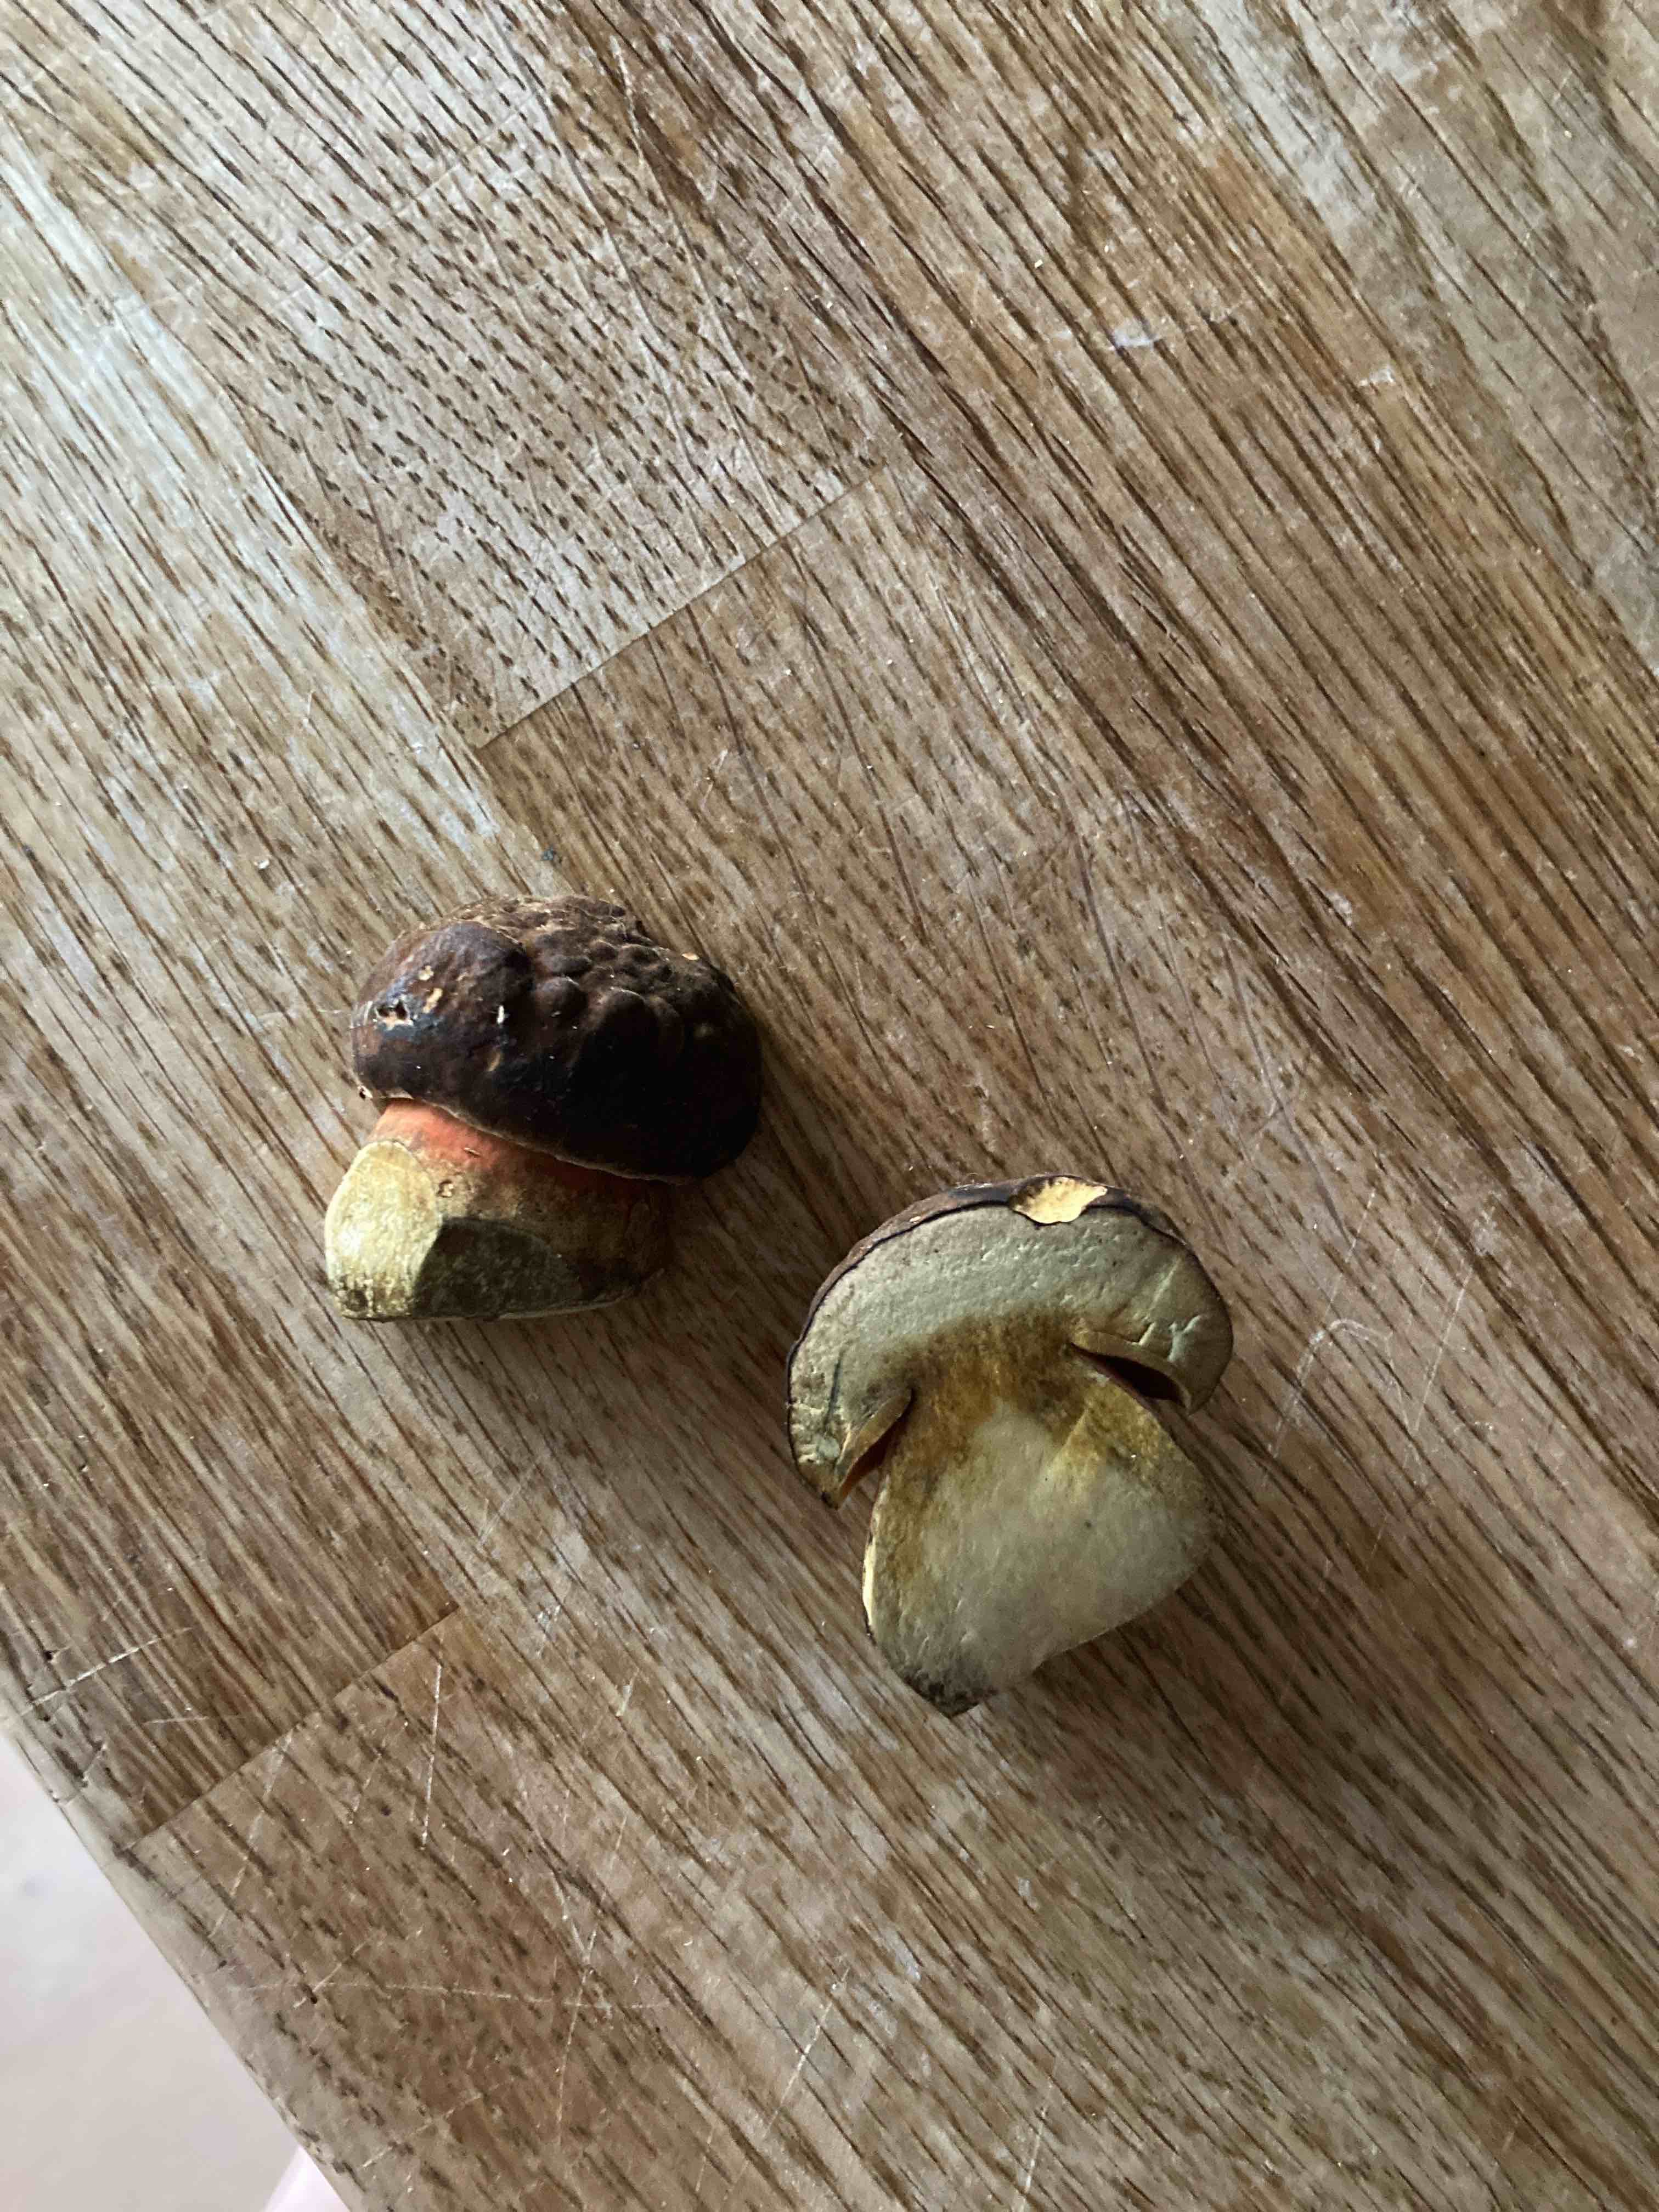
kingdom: Fungi
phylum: Basidiomycota
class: Agaricomycetes
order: Boletales
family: Boletaceae
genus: Neoboletus
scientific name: Neoboletus erythropus
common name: punktstokket indigorørhat
